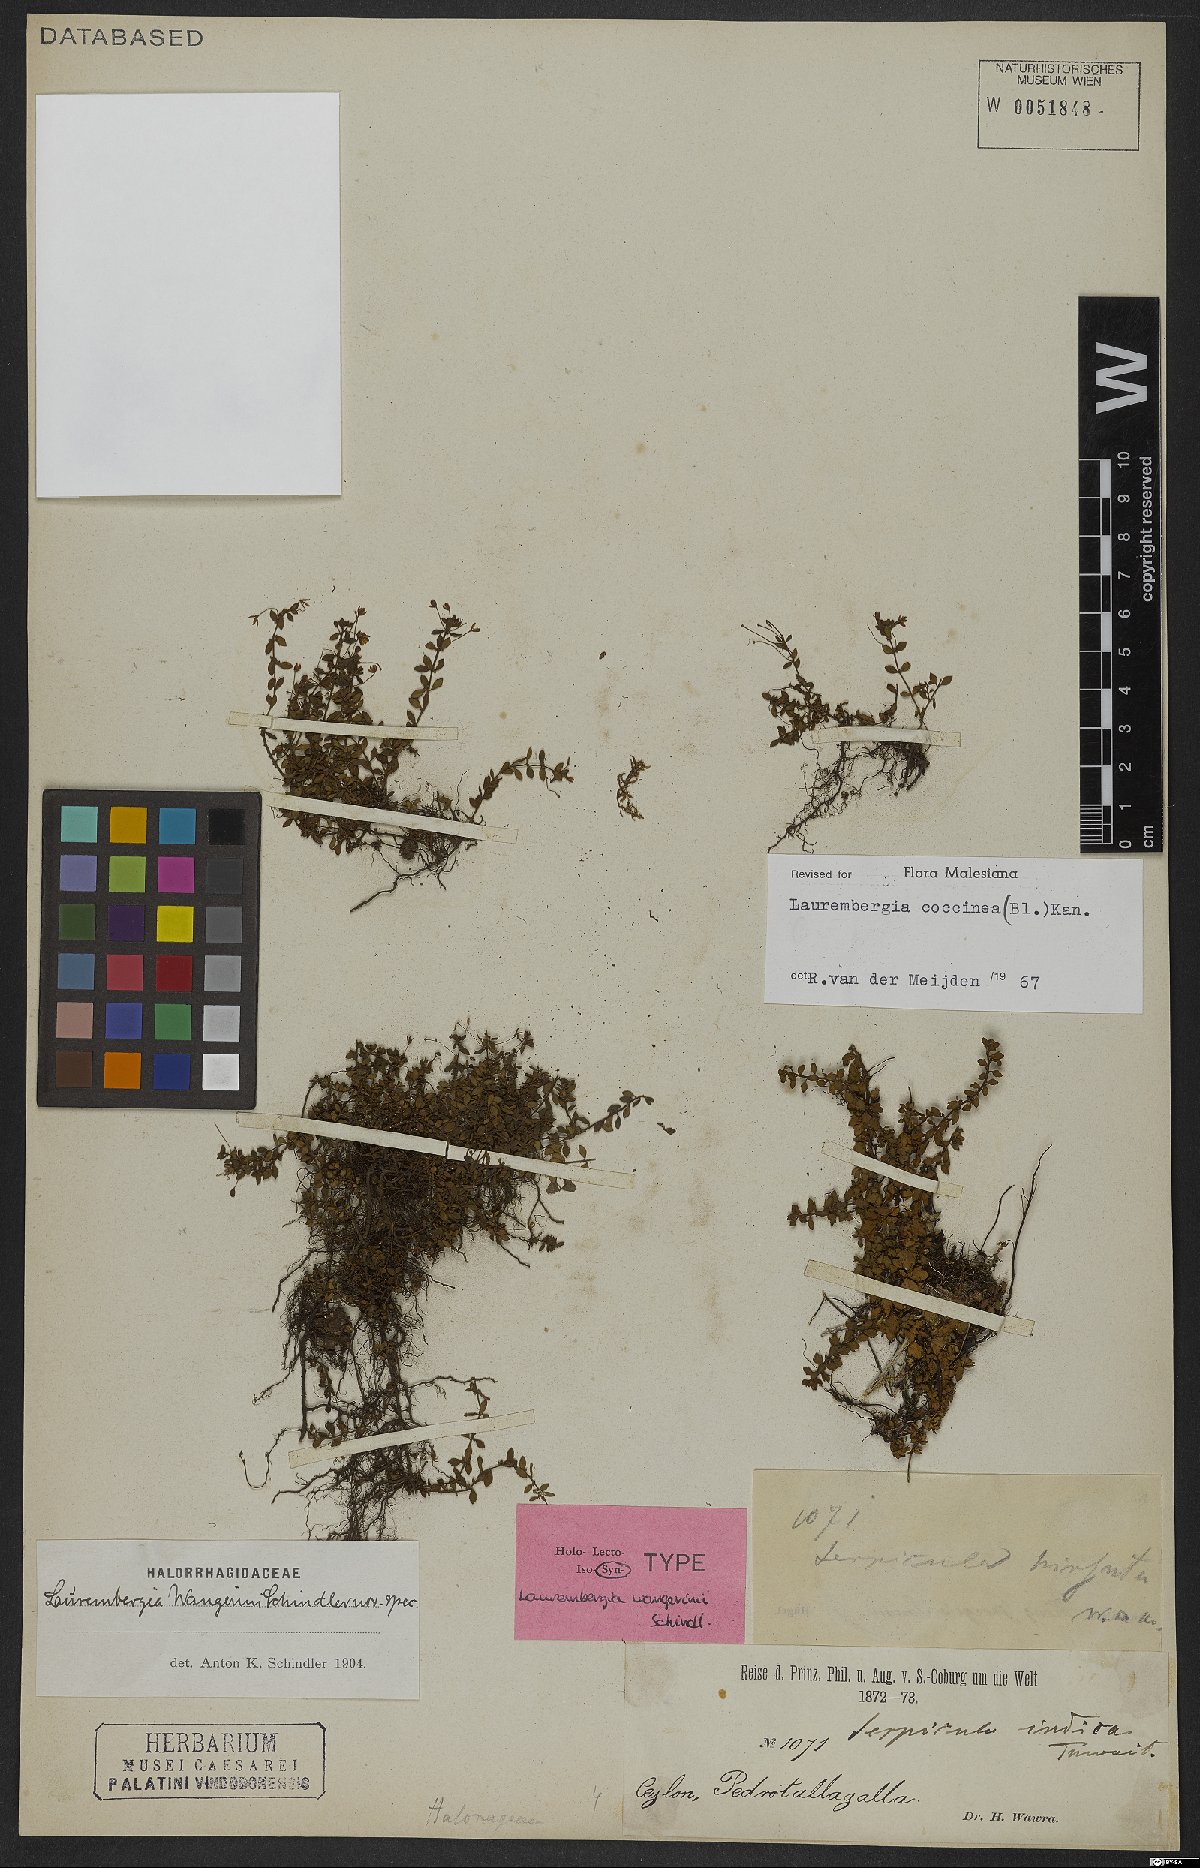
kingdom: Plantae
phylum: Tracheophyta
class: Magnoliopsida
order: Saxifragales
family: Haloragaceae
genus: Laurembergia
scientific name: Laurembergia coccinea
